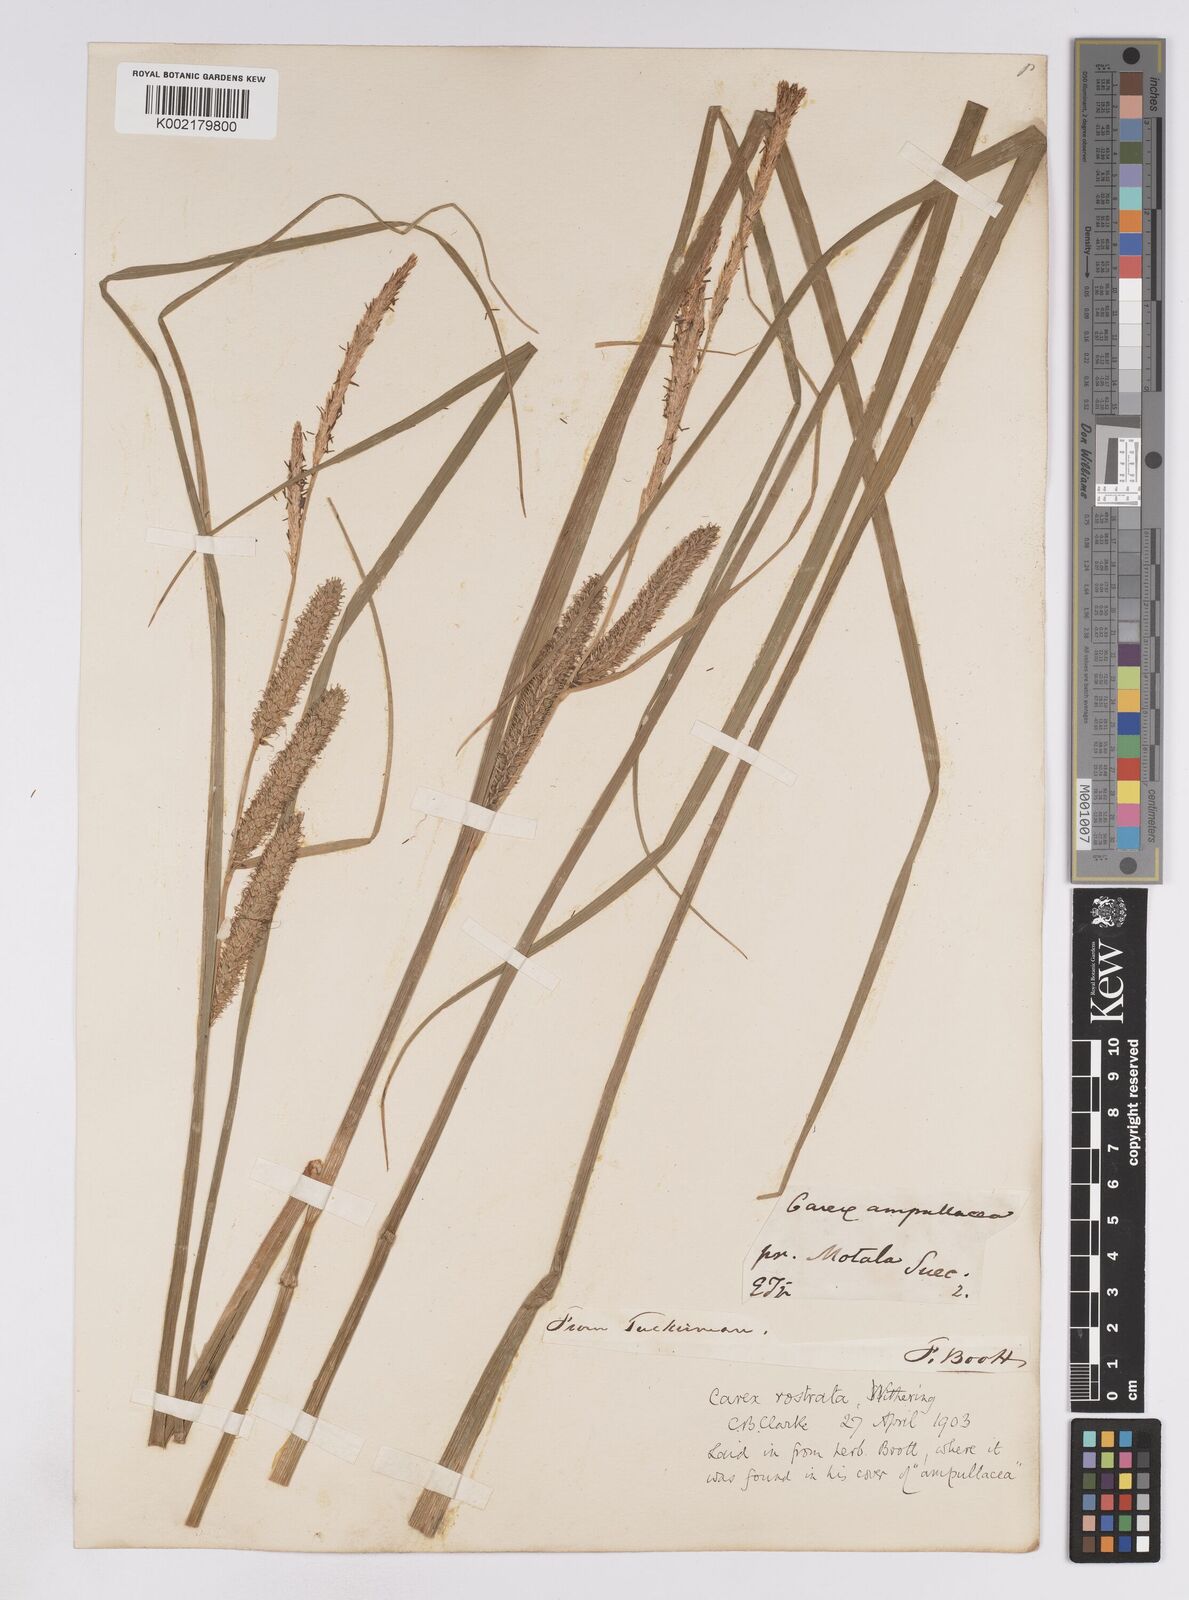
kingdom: Plantae
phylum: Tracheophyta
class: Liliopsida
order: Poales
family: Cyperaceae
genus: Carex
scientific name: Carex rostrata
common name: Bottle sedge
